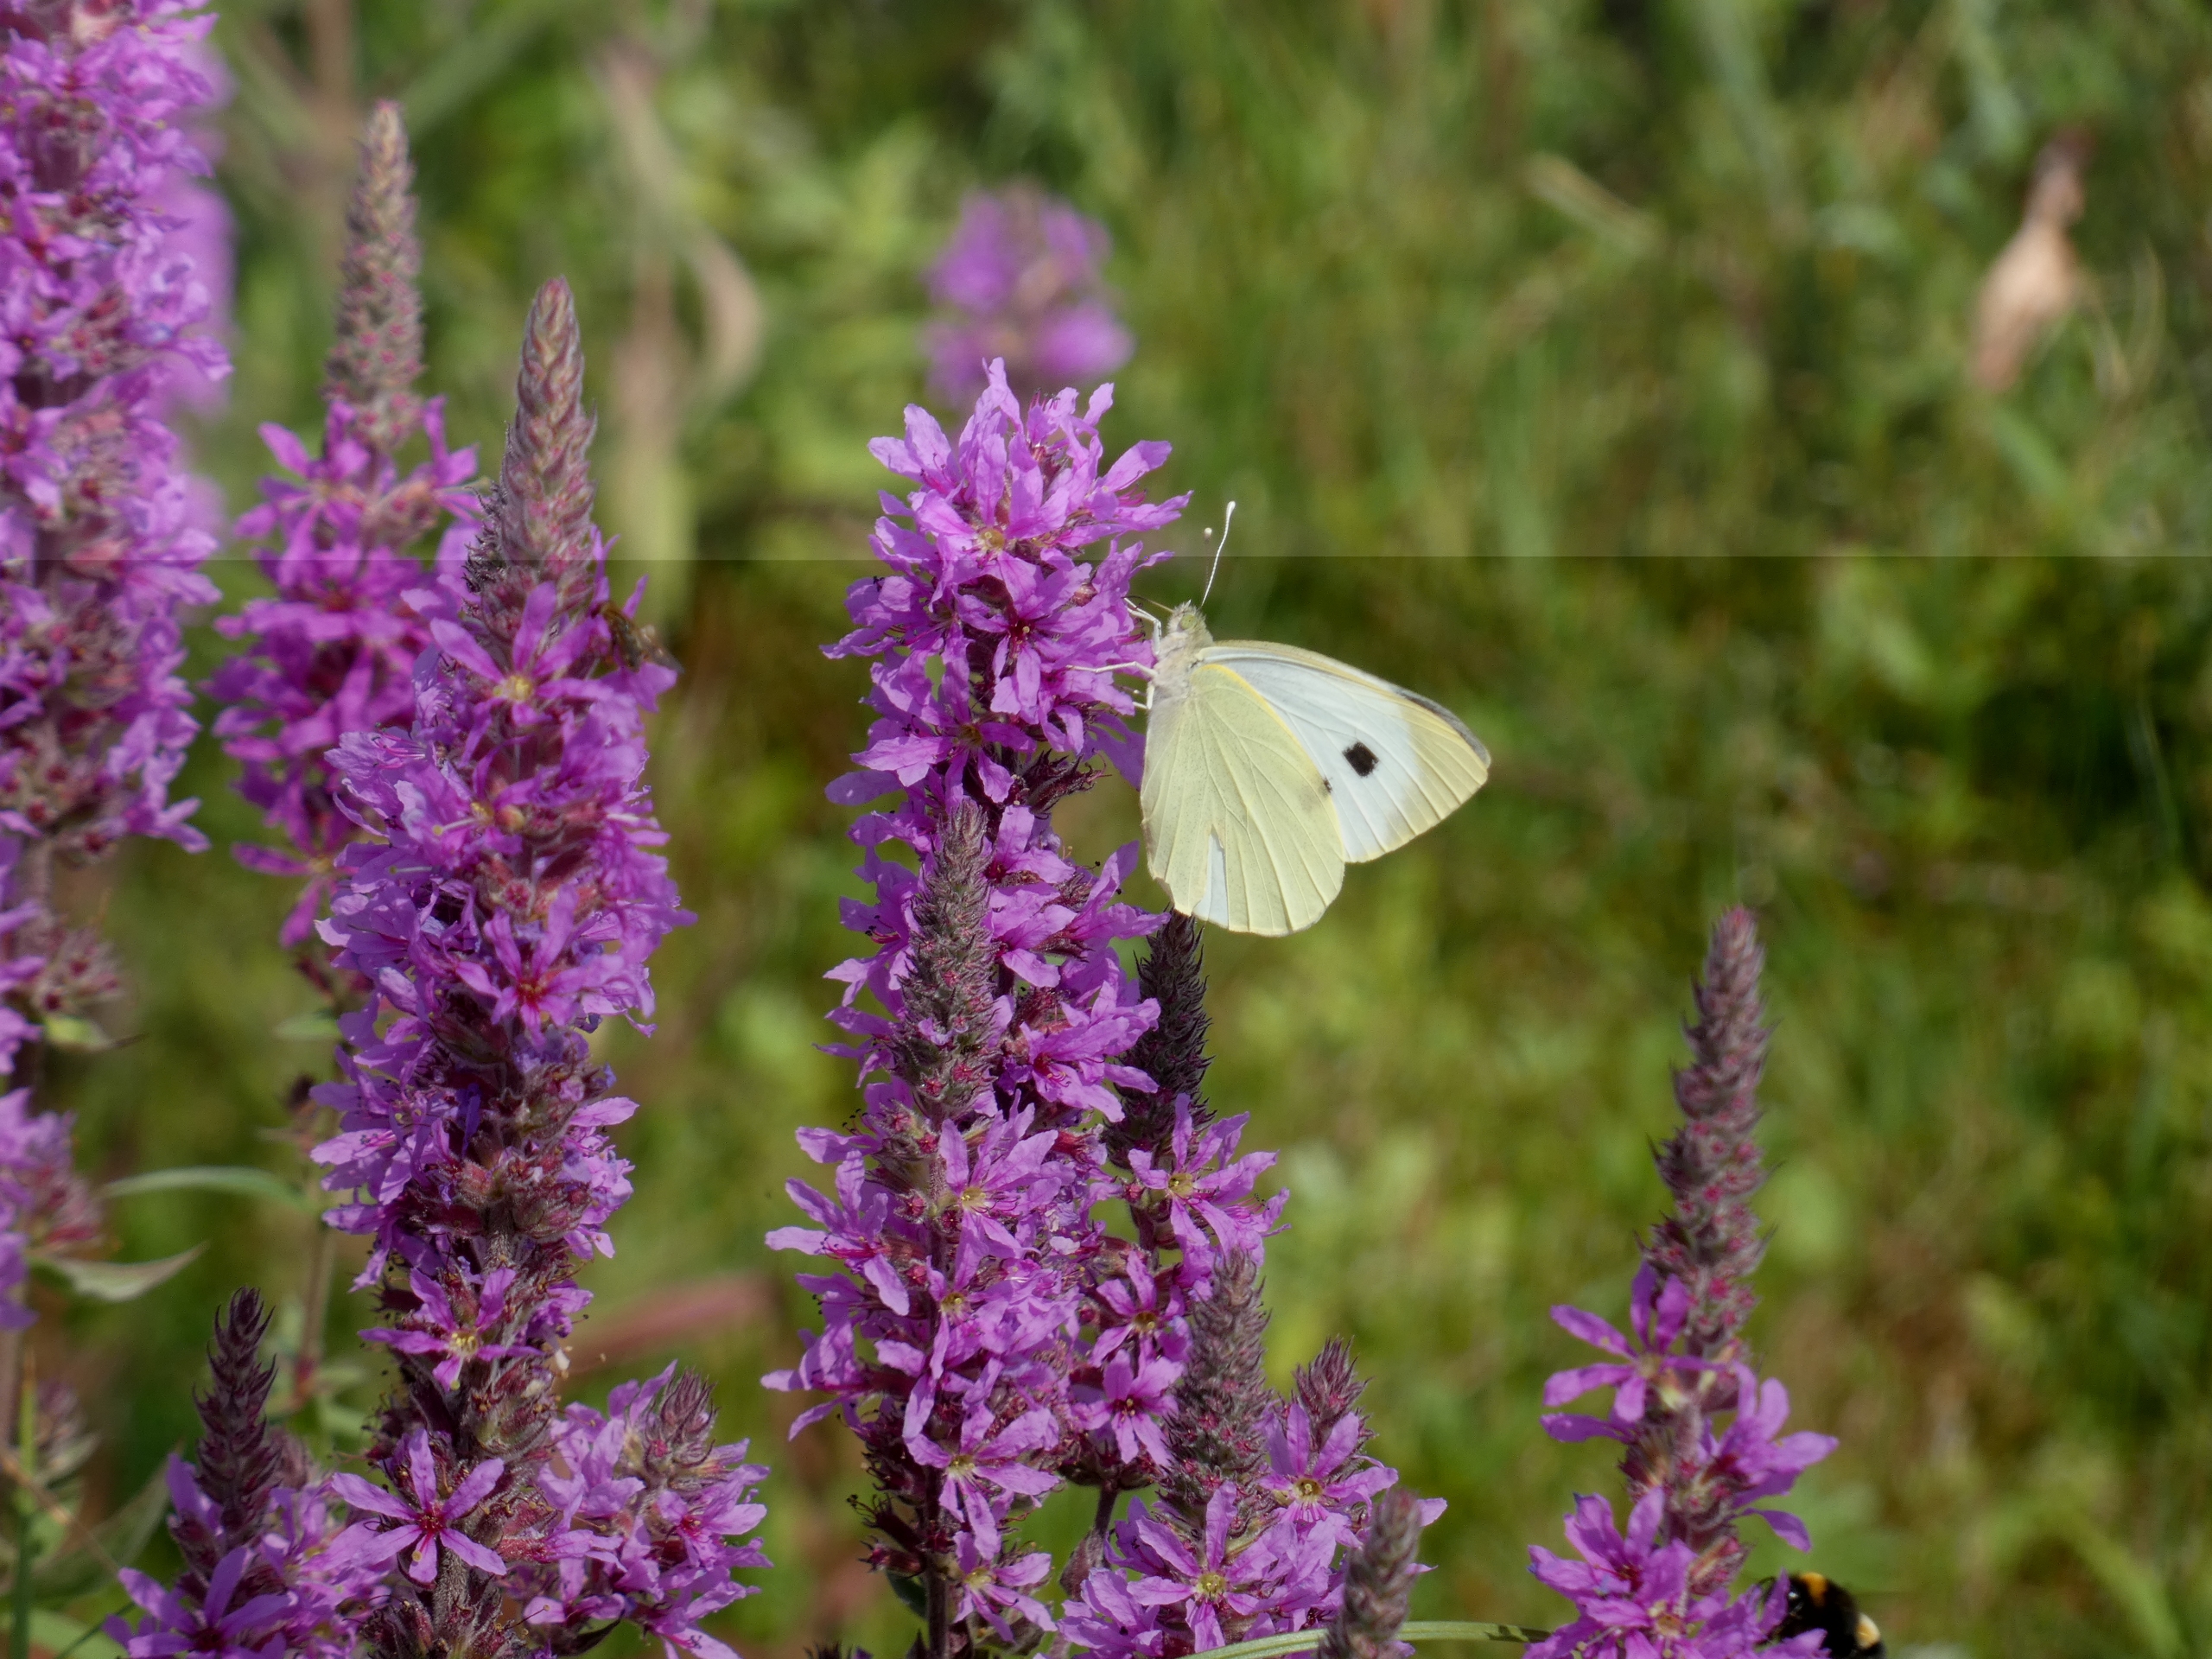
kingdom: Animalia
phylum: Arthropoda
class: Insecta
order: Lepidoptera
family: Pieridae
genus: Pieris
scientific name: Pieris brassicae
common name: Stor kålsommerfugl
